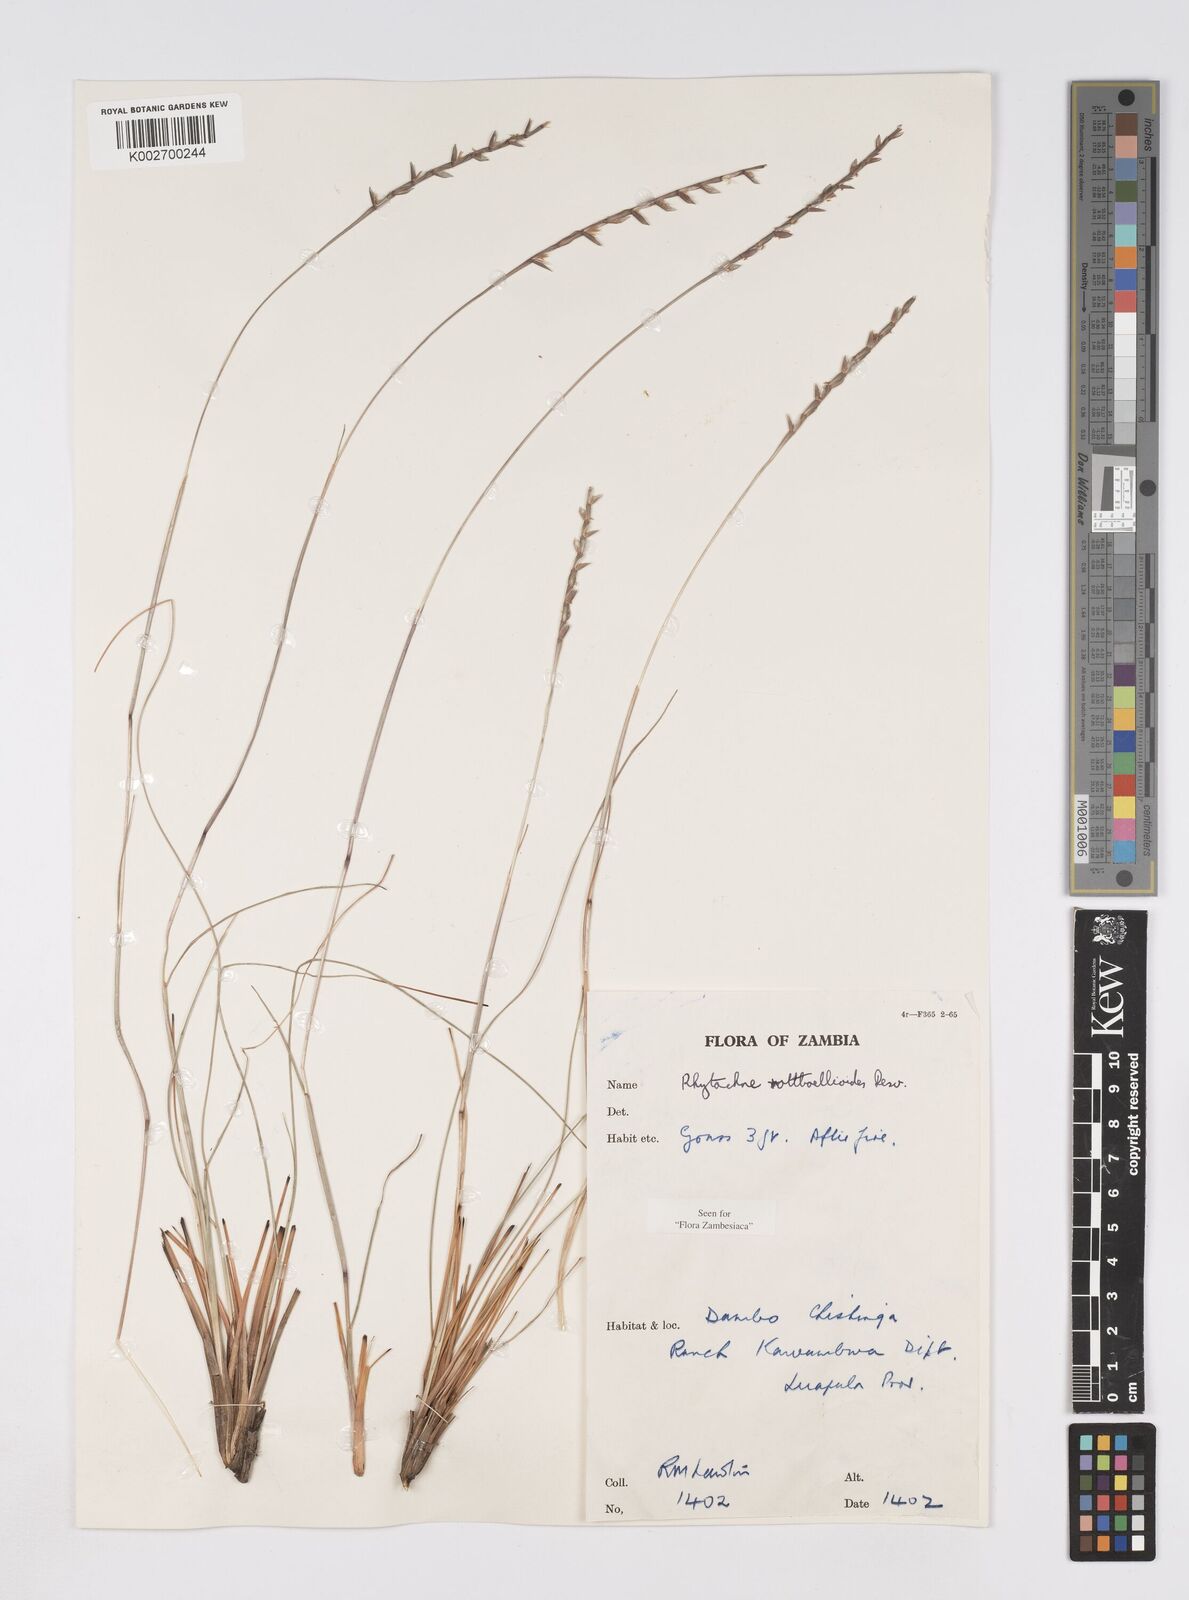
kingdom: Plantae
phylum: Tracheophyta
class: Liliopsida
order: Poales
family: Poaceae
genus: Rhytachne
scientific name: Rhytachne rottboellioides
